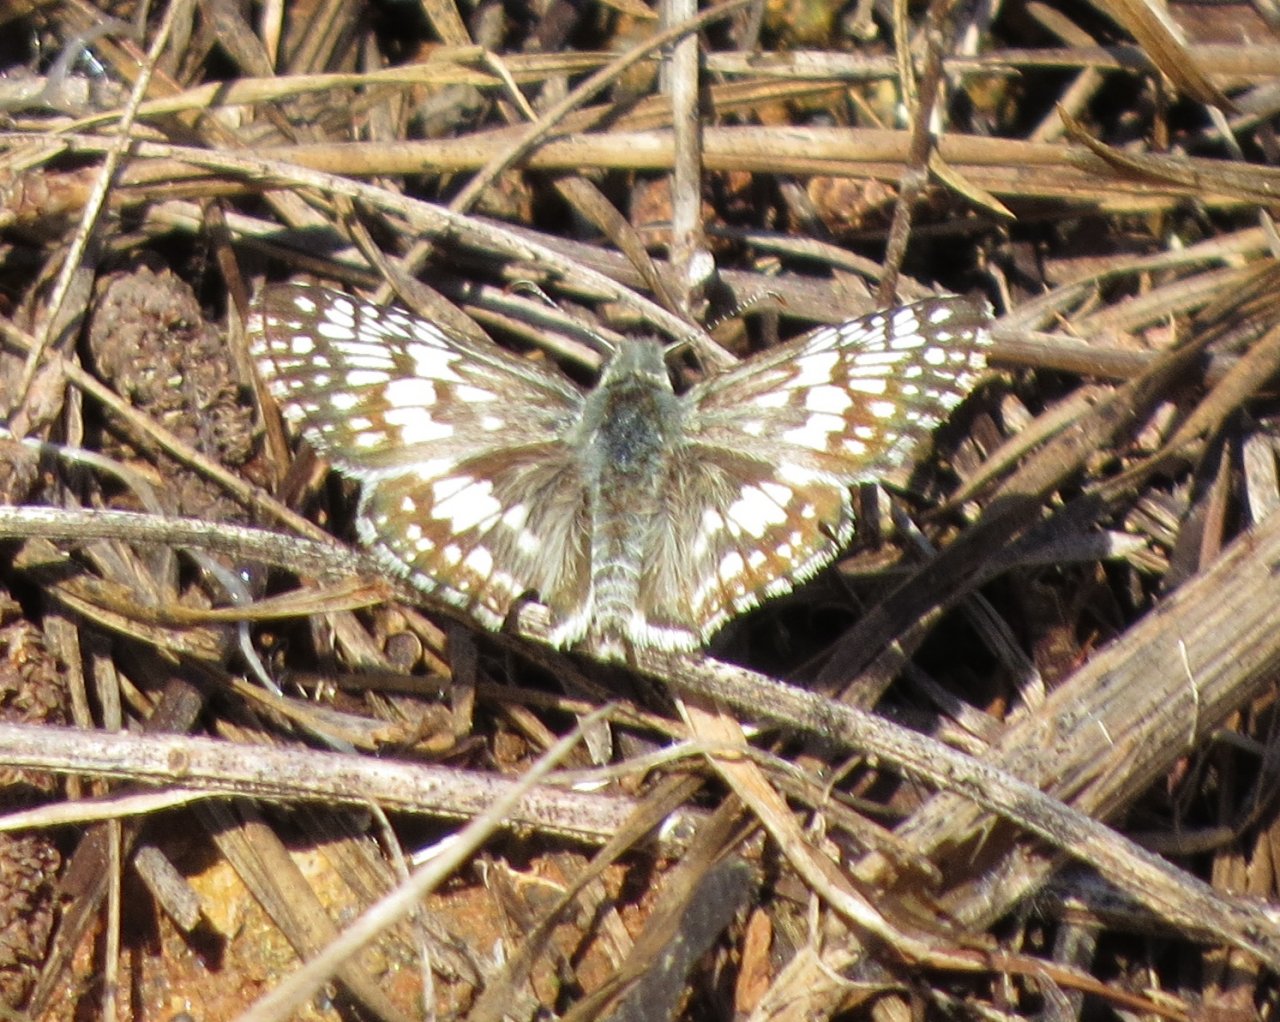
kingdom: Animalia
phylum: Arthropoda
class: Insecta
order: Lepidoptera
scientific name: Lepidoptera
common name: Butterflies
